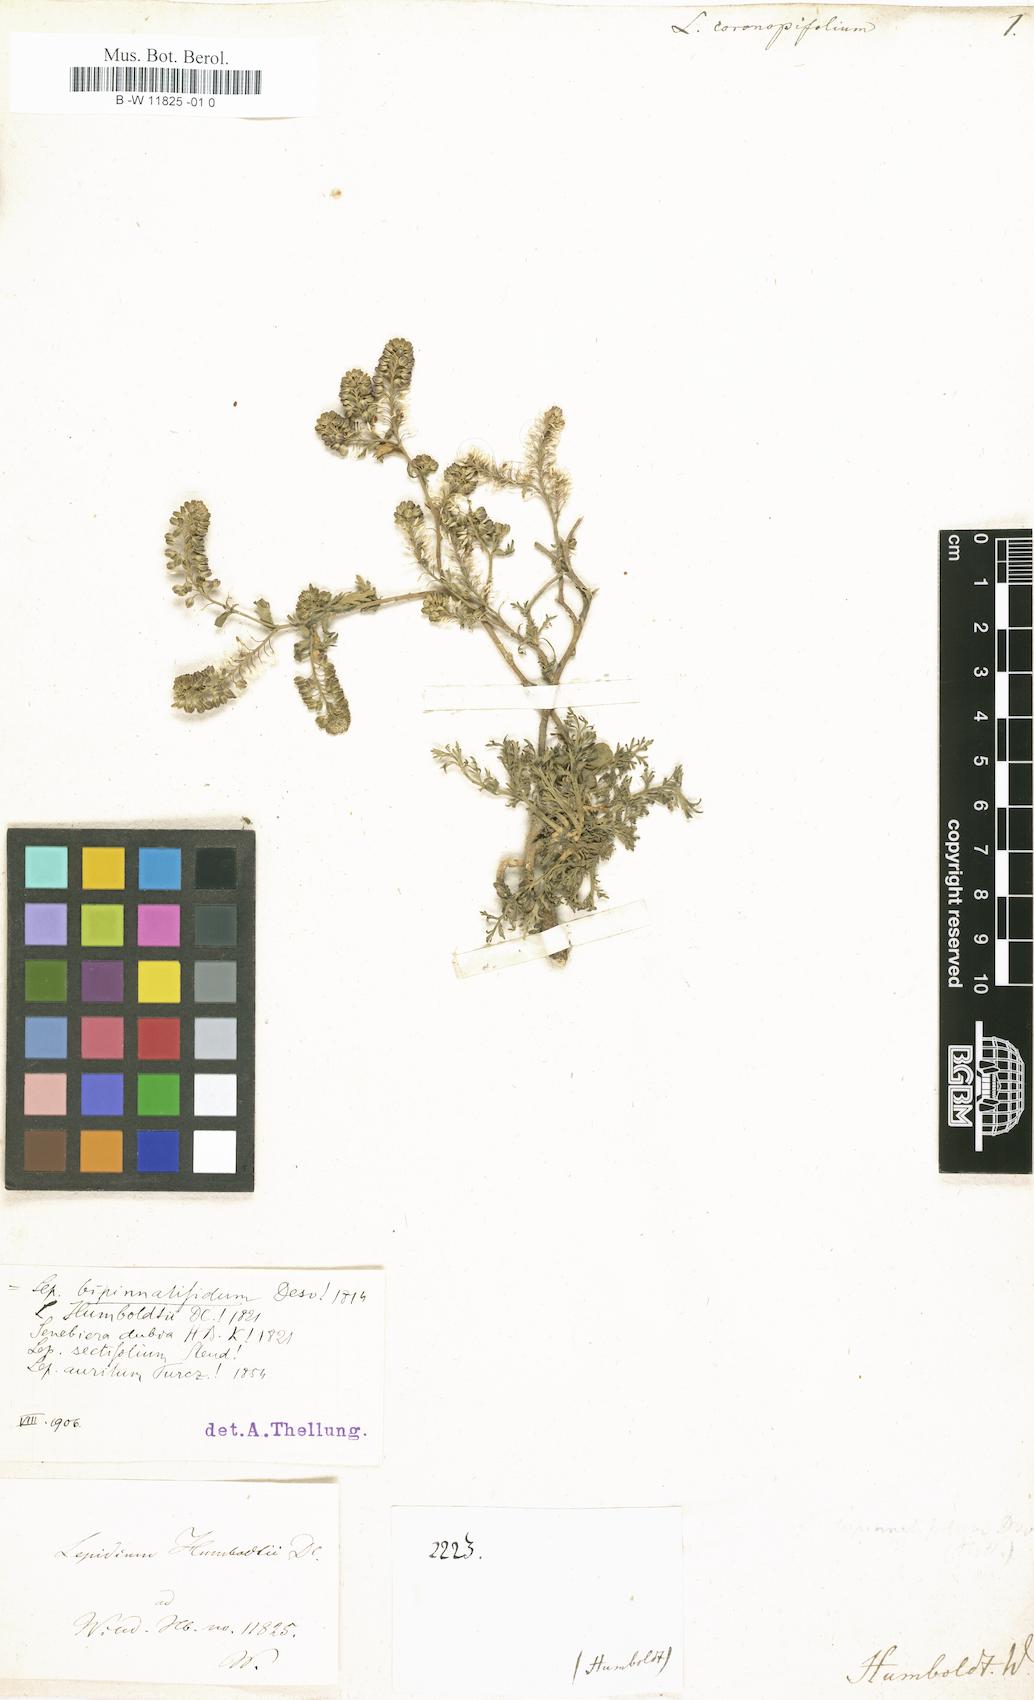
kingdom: Plantae
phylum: Tracheophyta
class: Magnoliopsida
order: Brassicales
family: Brassicaceae
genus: Lepidium
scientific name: Lepidium coronopifolium
